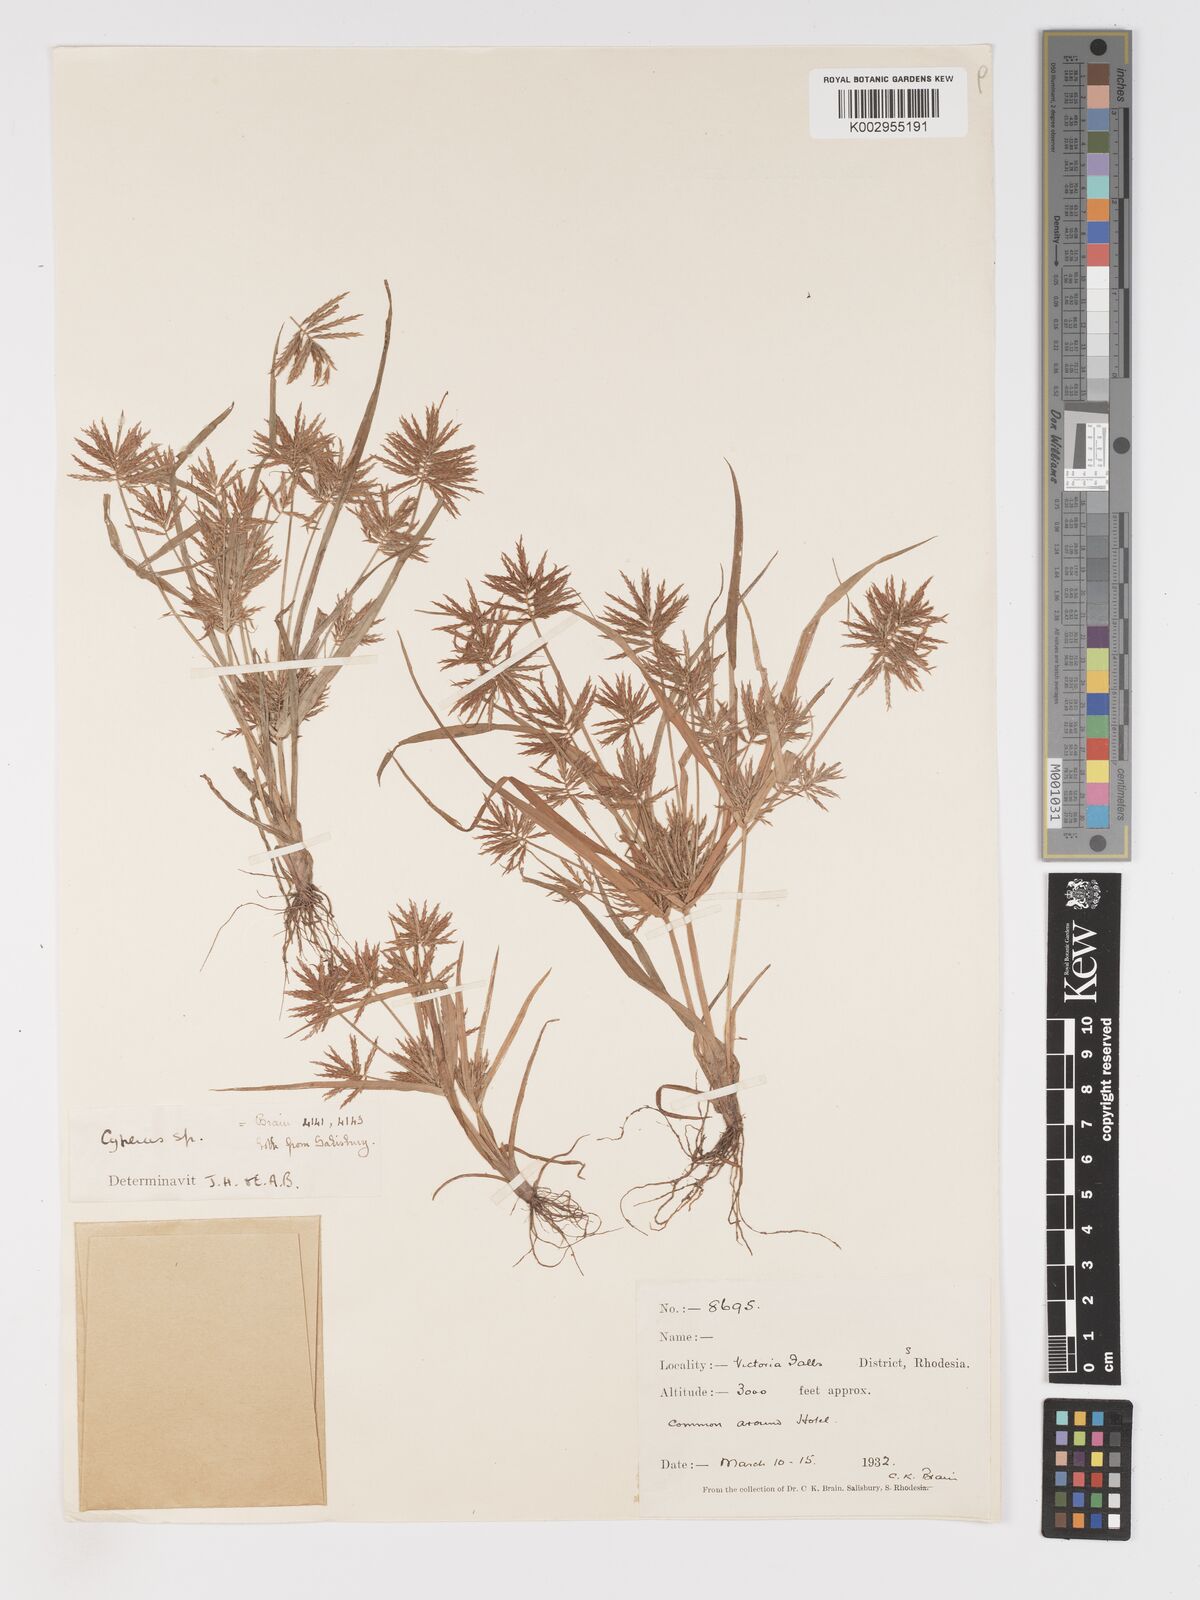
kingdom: Plantae
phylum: Tracheophyta
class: Liliopsida
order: Poales
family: Cyperaceae
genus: Cyperus
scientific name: Cyperus
